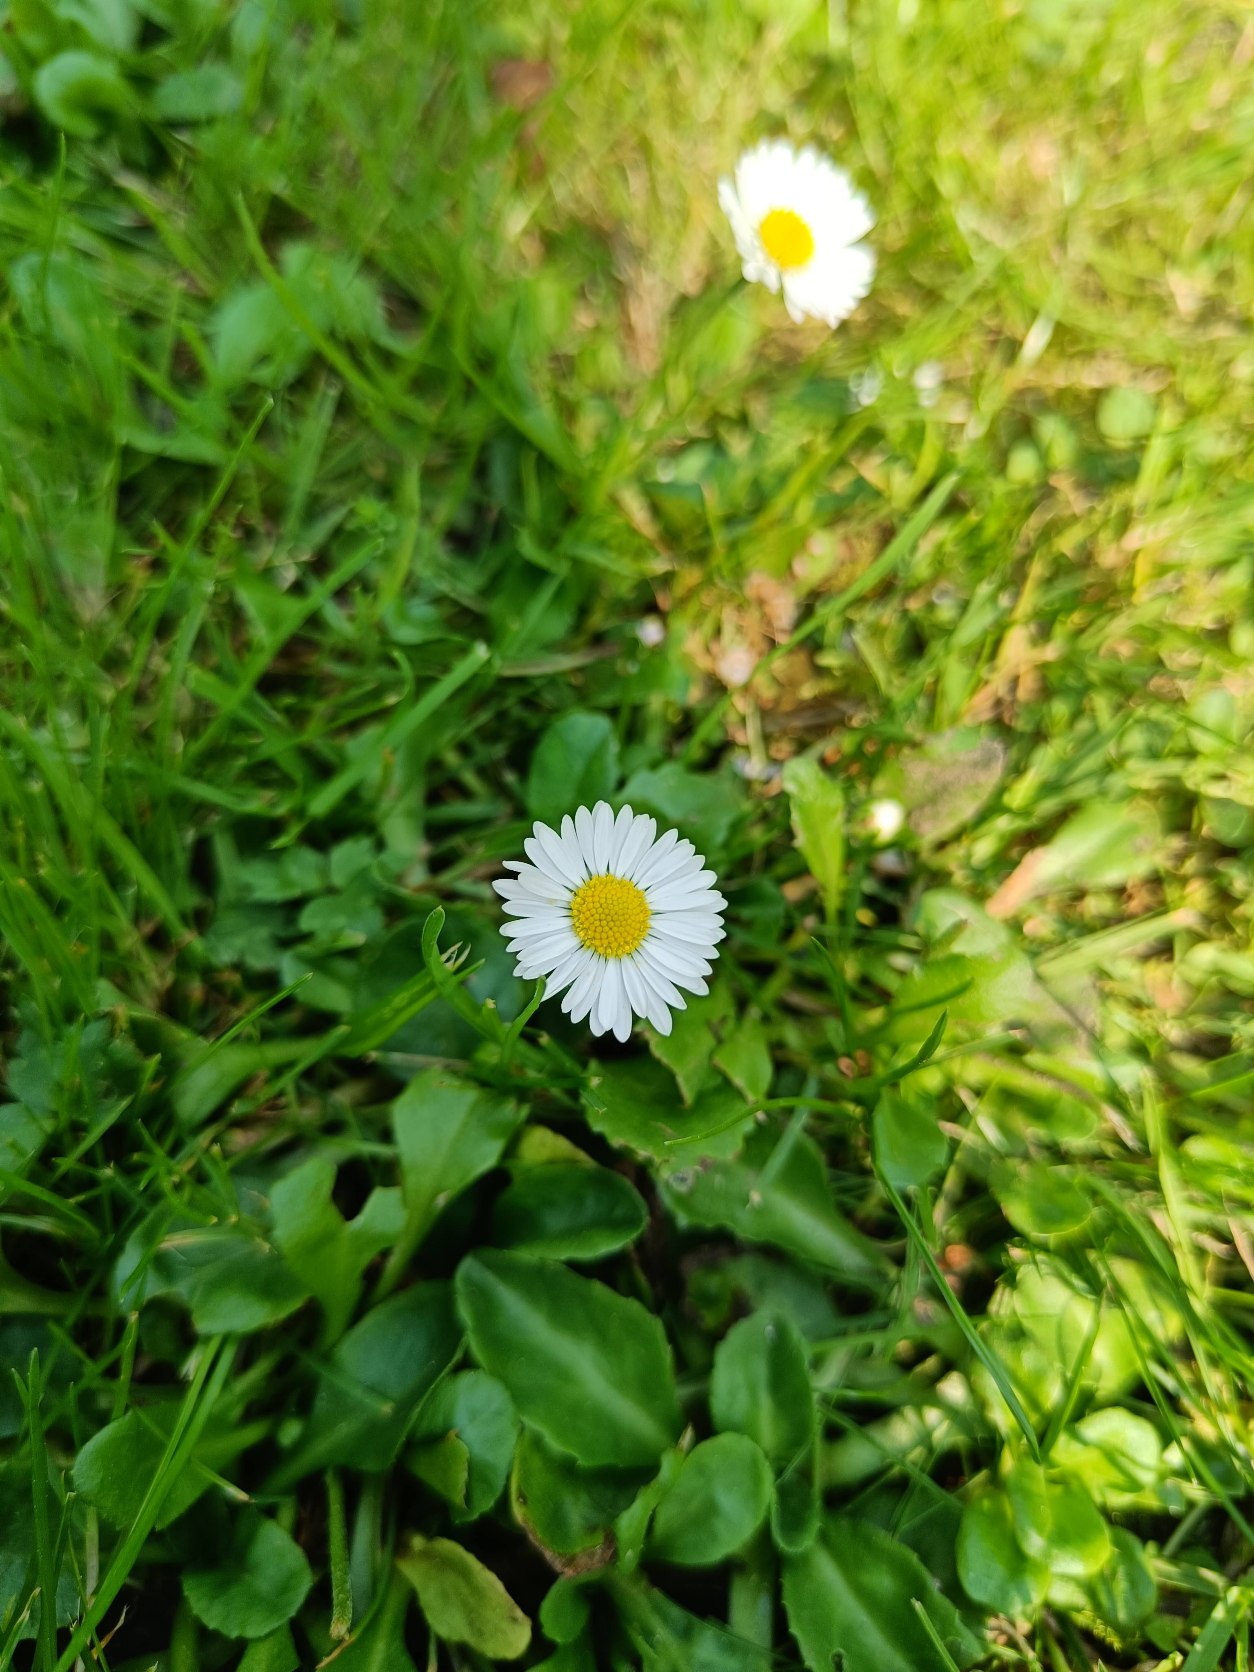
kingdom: Plantae
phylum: Tracheophyta
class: Magnoliopsida
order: Asterales
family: Asteraceae
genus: Bellis
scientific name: Bellis perennis
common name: Tusindfryd
